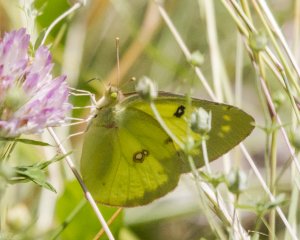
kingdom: Animalia
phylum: Arthropoda
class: Insecta
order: Lepidoptera
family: Pieridae
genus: Colias
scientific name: Colias philodice
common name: Clouded Sulphur
